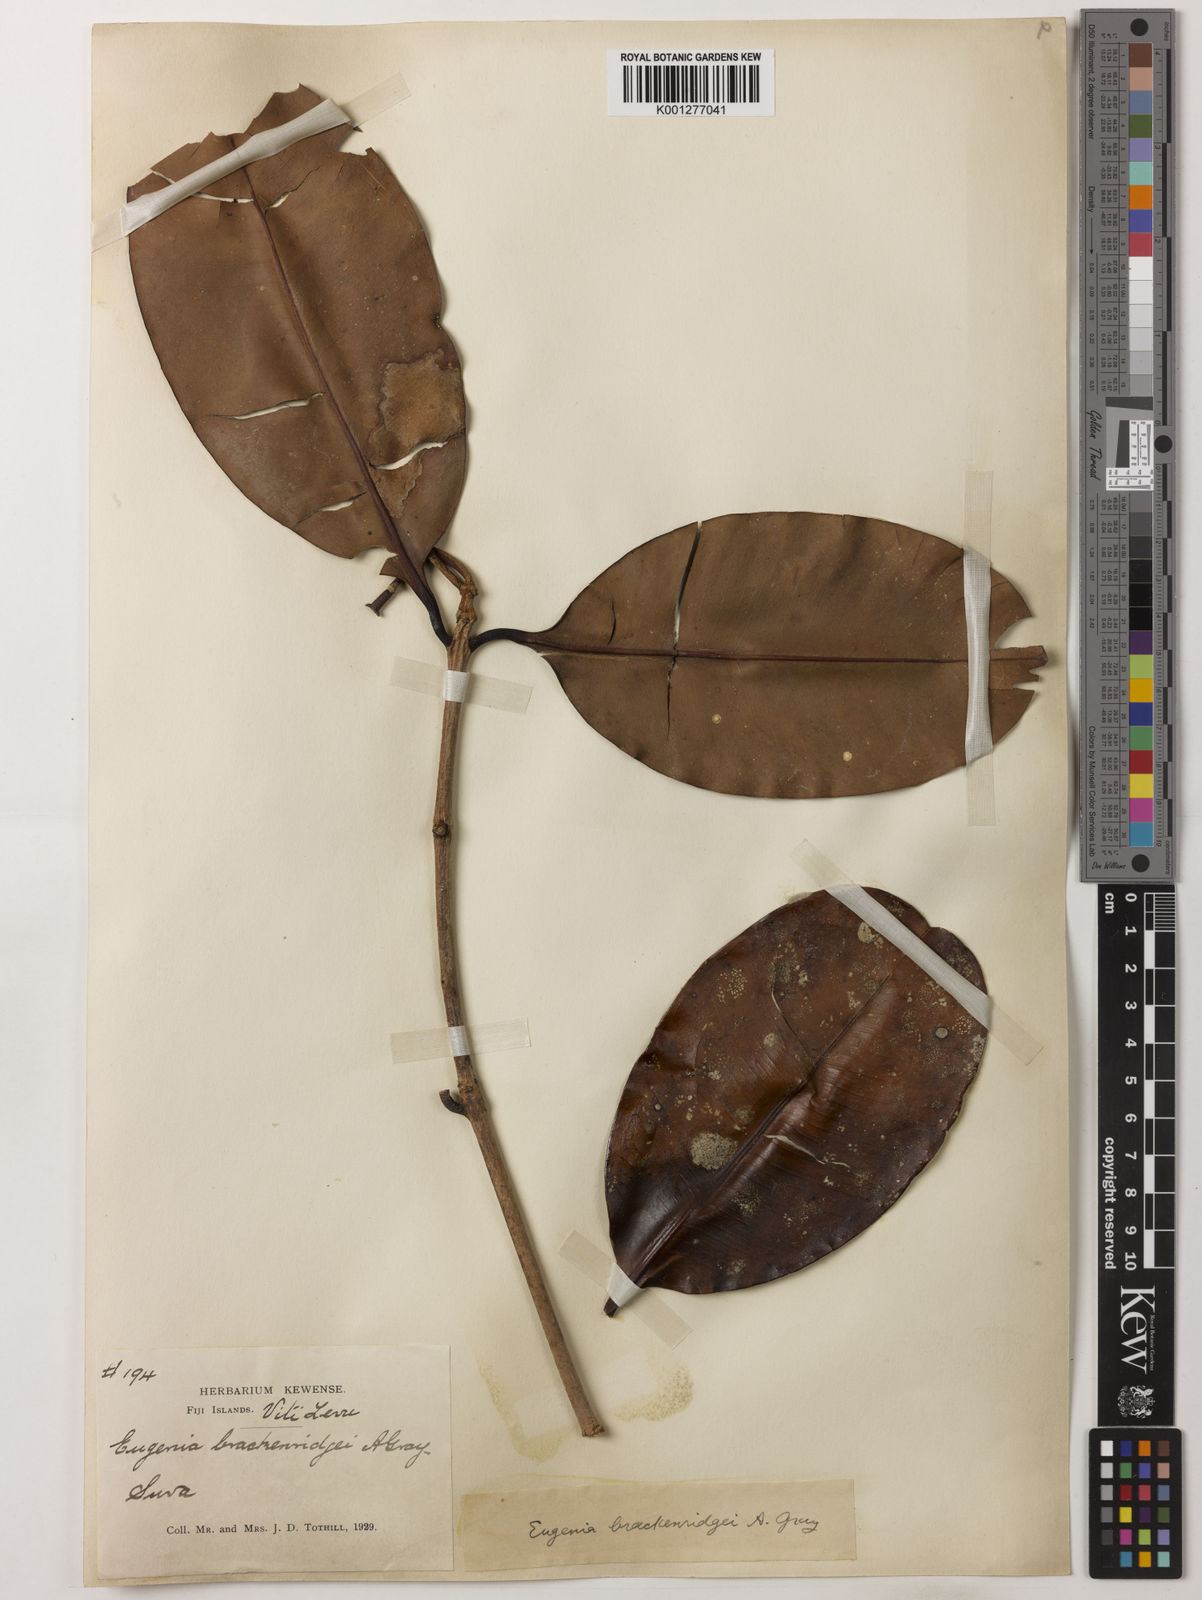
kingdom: Plantae
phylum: Tracheophyta
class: Magnoliopsida
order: Myrtales
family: Myrtaceae
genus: Syzygium
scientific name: Syzygium
